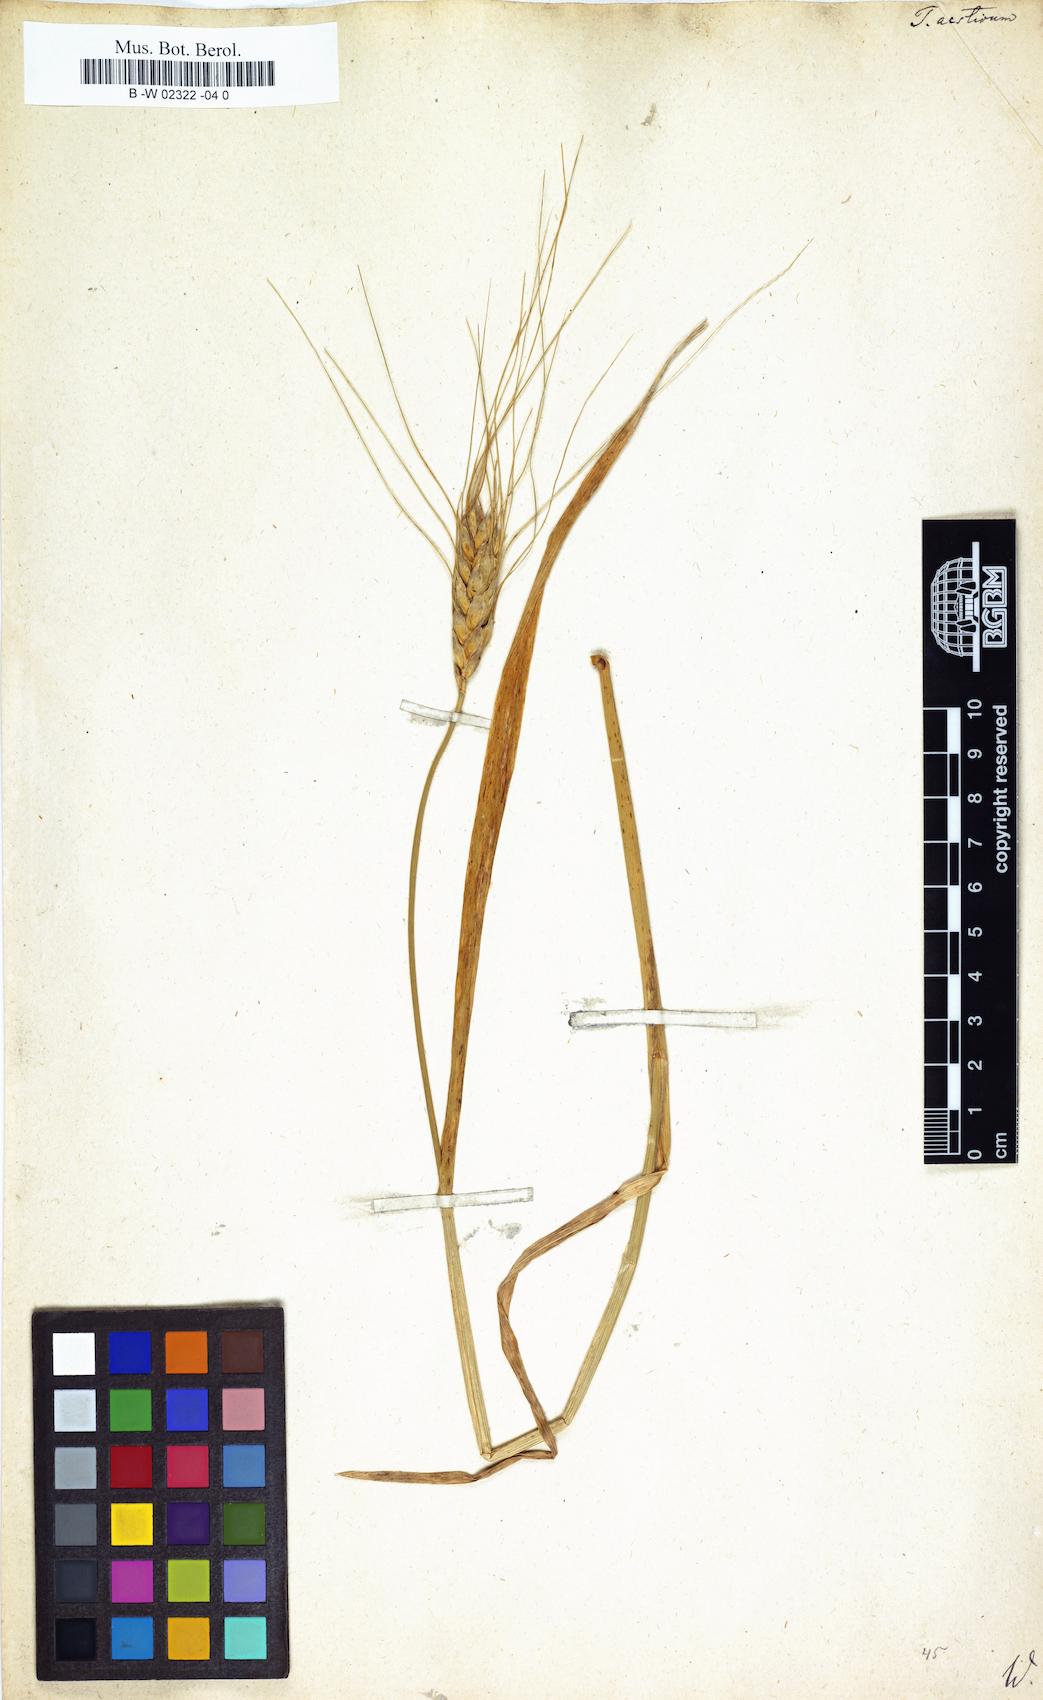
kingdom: Plantae
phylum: Tracheophyta
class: Liliopsida
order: Poales
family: Poaceae
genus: Triticum
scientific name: Triticum aestivum
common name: Common wheat
